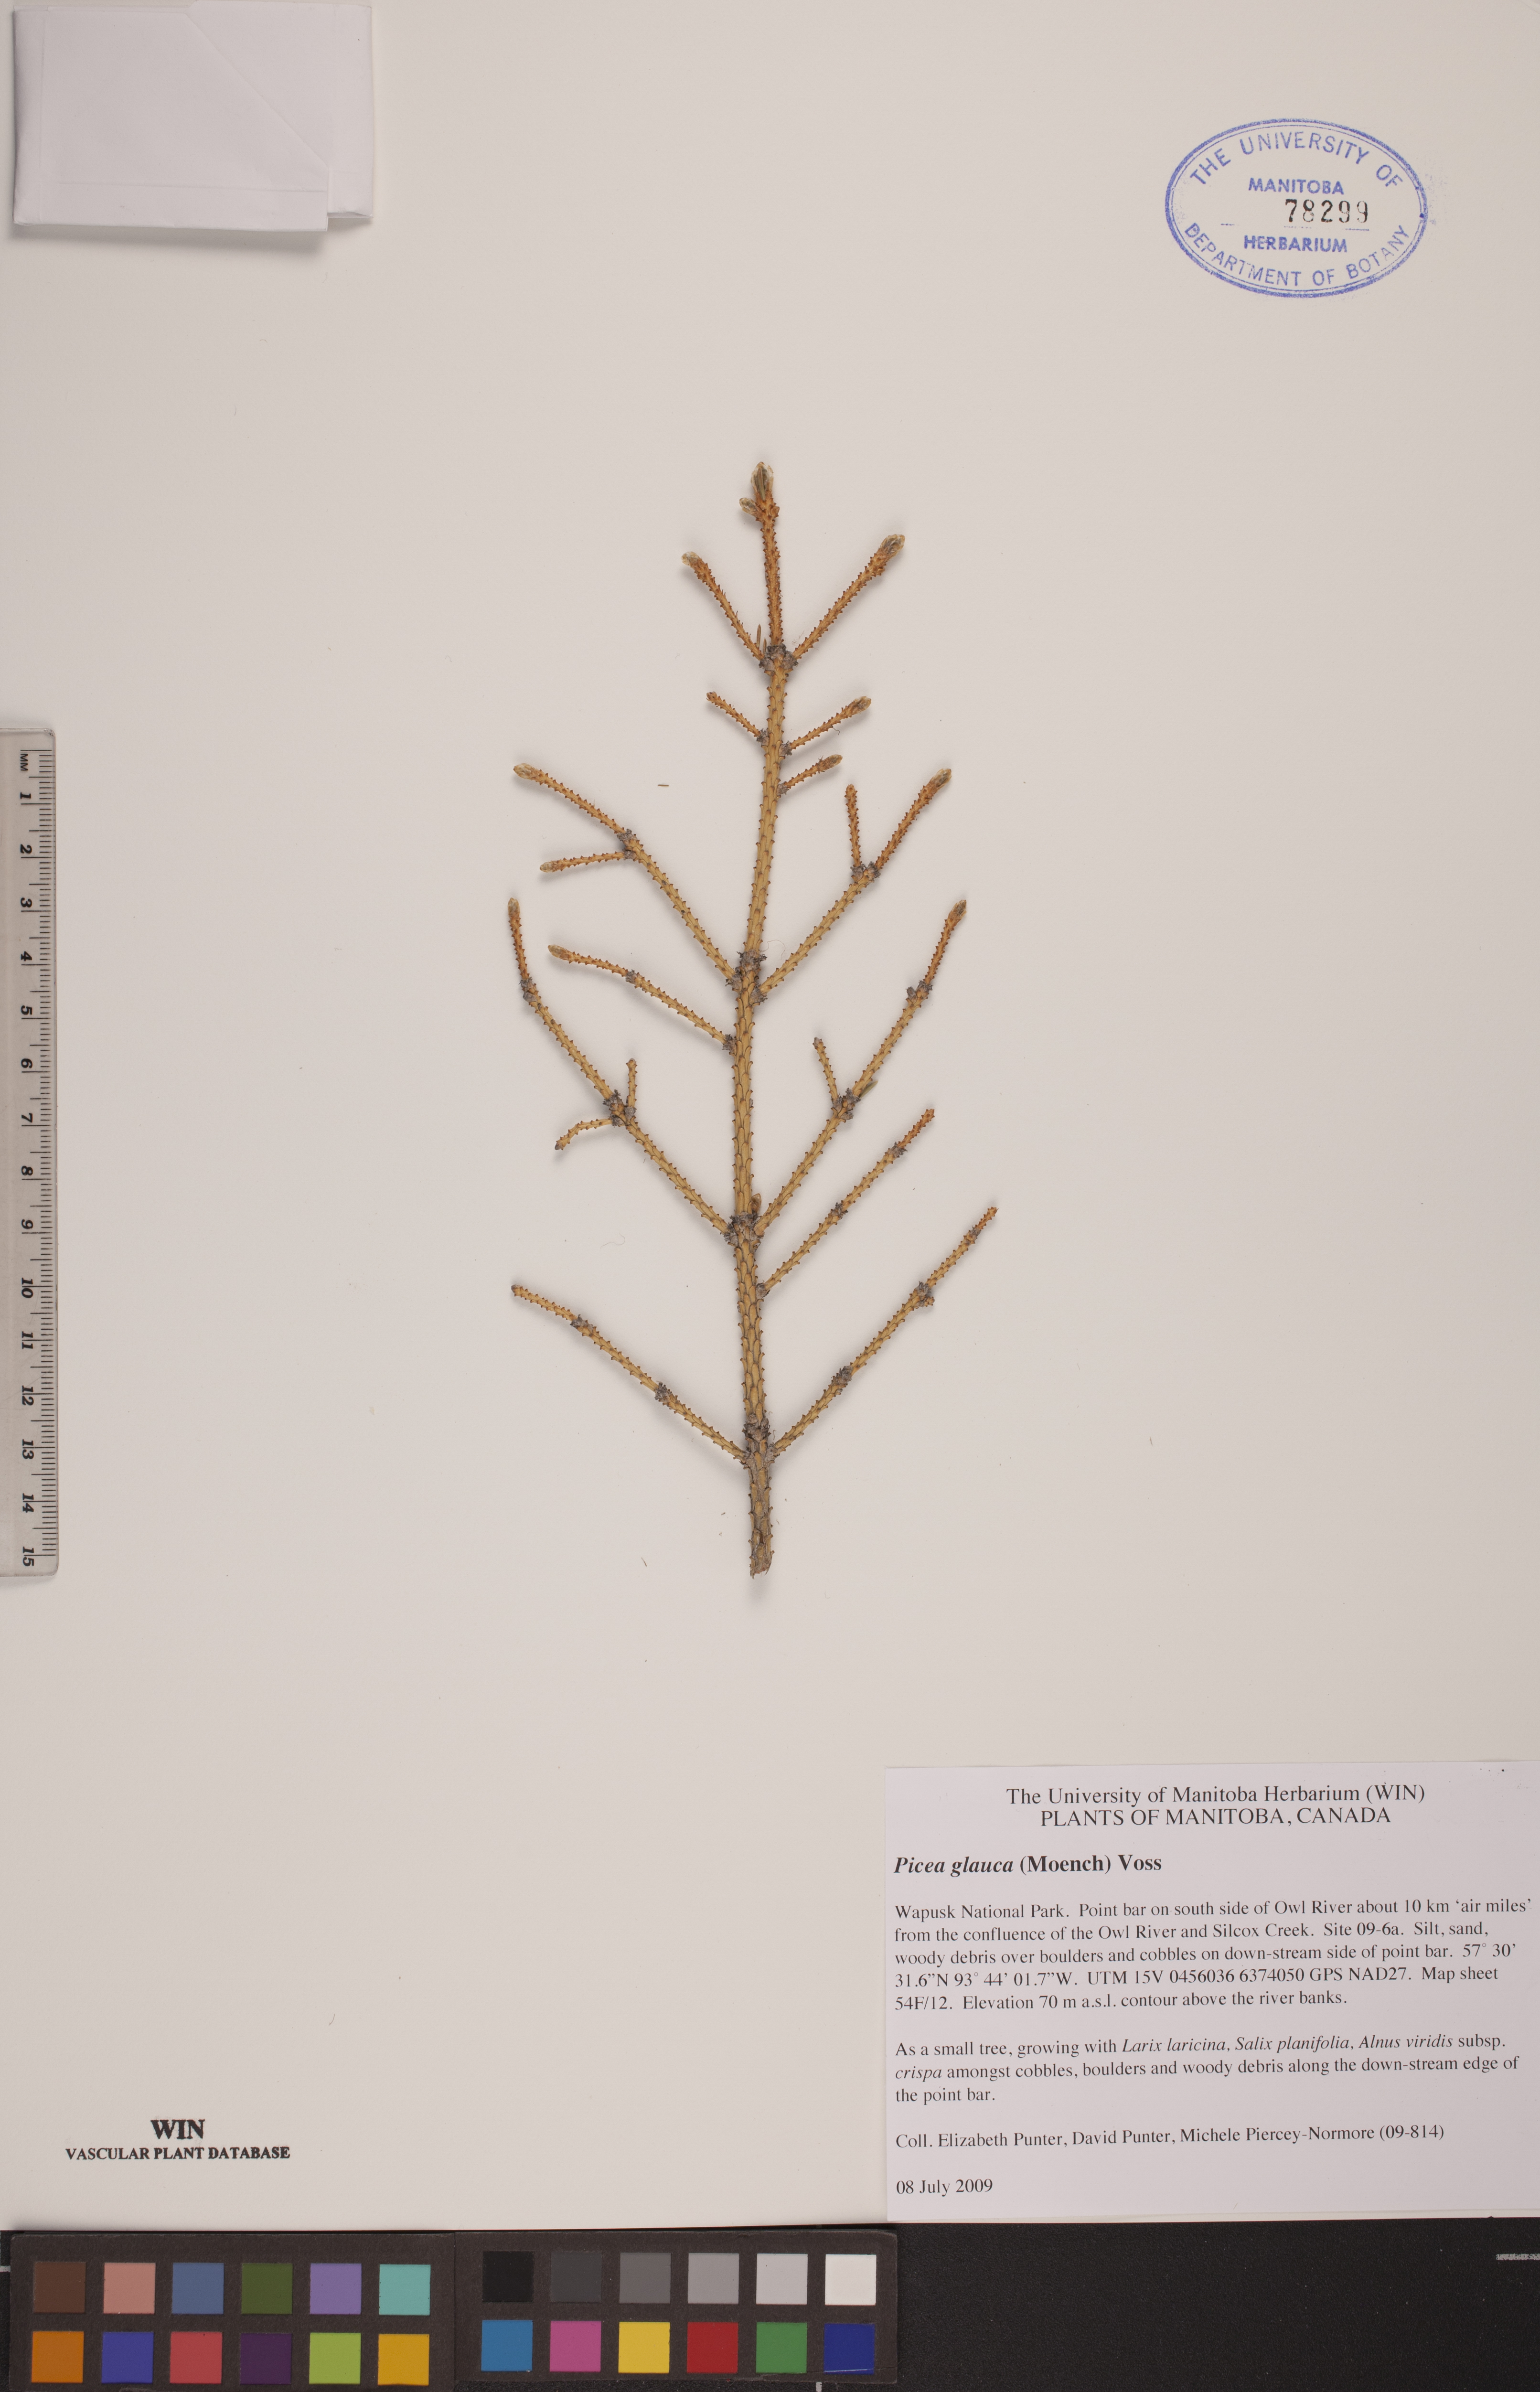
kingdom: Plantae
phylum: Tracheophyta
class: Pinopsida
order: Pinales
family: Pinaceae
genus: Picea
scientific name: Picea glauca
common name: White spruce
